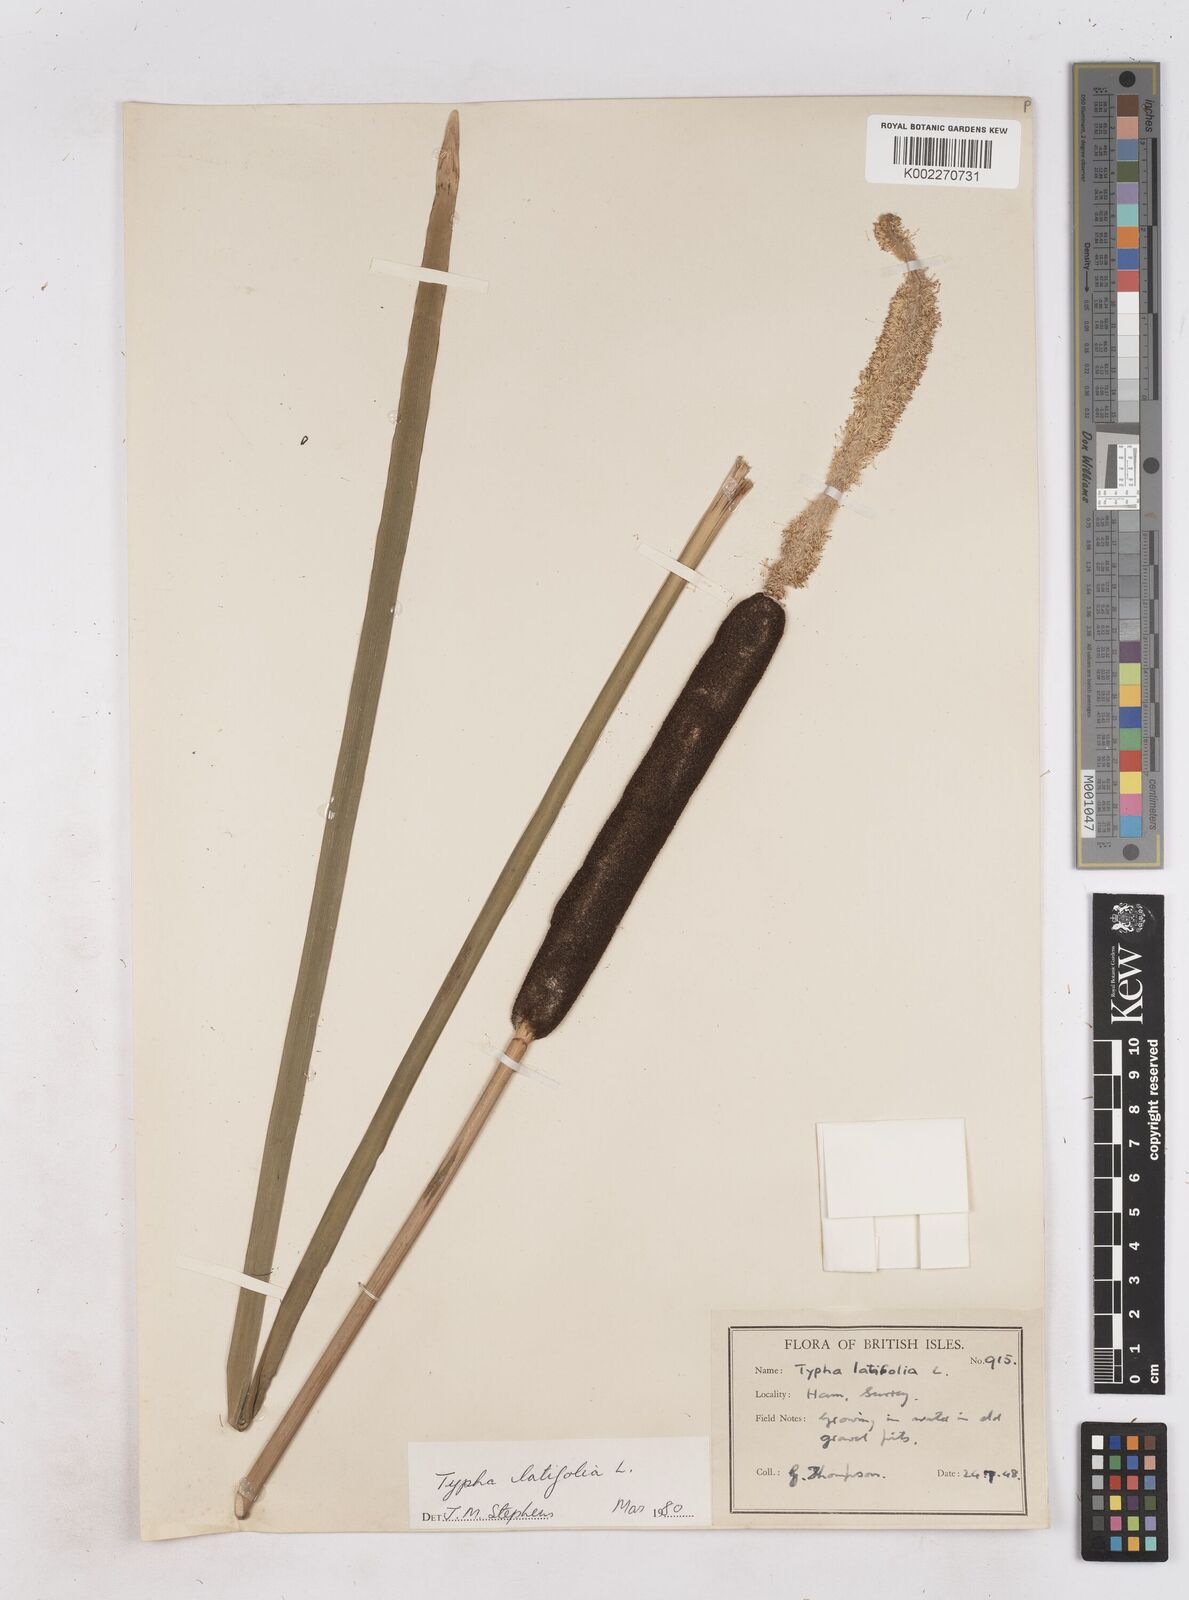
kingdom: Plantae
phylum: Tracheophyta
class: Liliopsida
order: Poales
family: Typhaceae
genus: Typha
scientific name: Typha latifolia
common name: Broadleaf cattail
